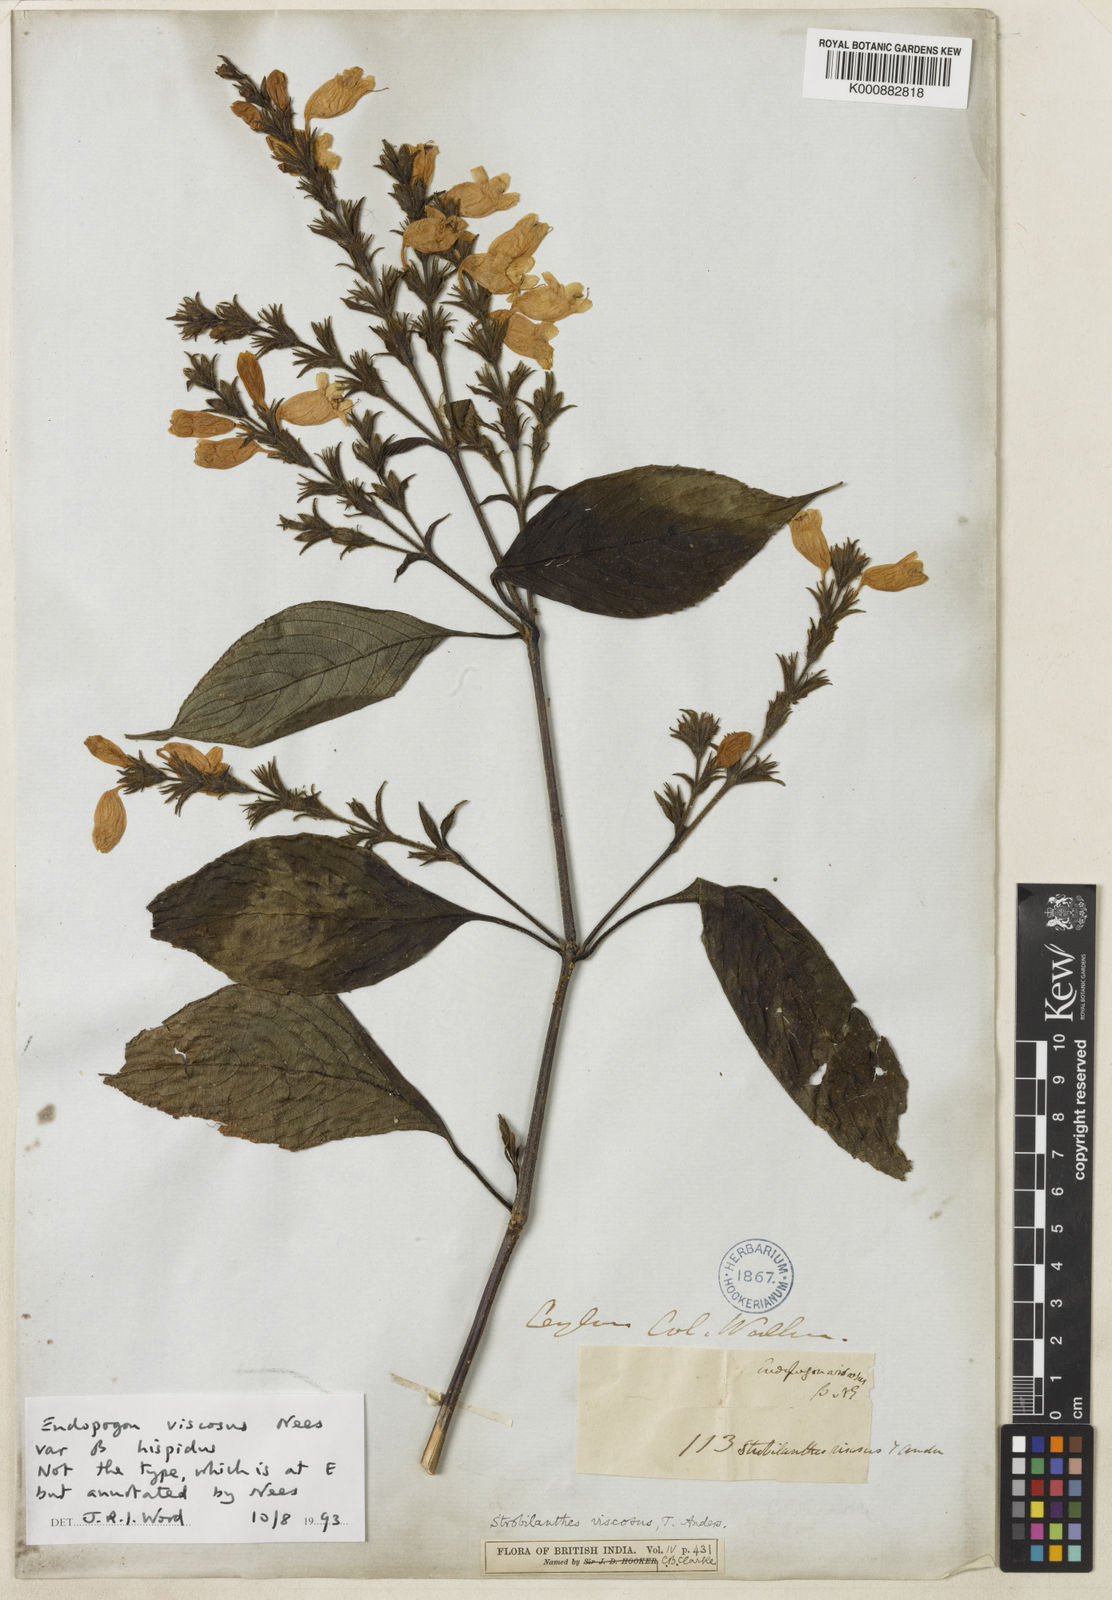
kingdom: Plantae
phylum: Tracheophyta
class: Magnoliopsida
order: Lamiales
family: Acanthaceae
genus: Strobilanthes
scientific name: Strobilanthes viscosa
